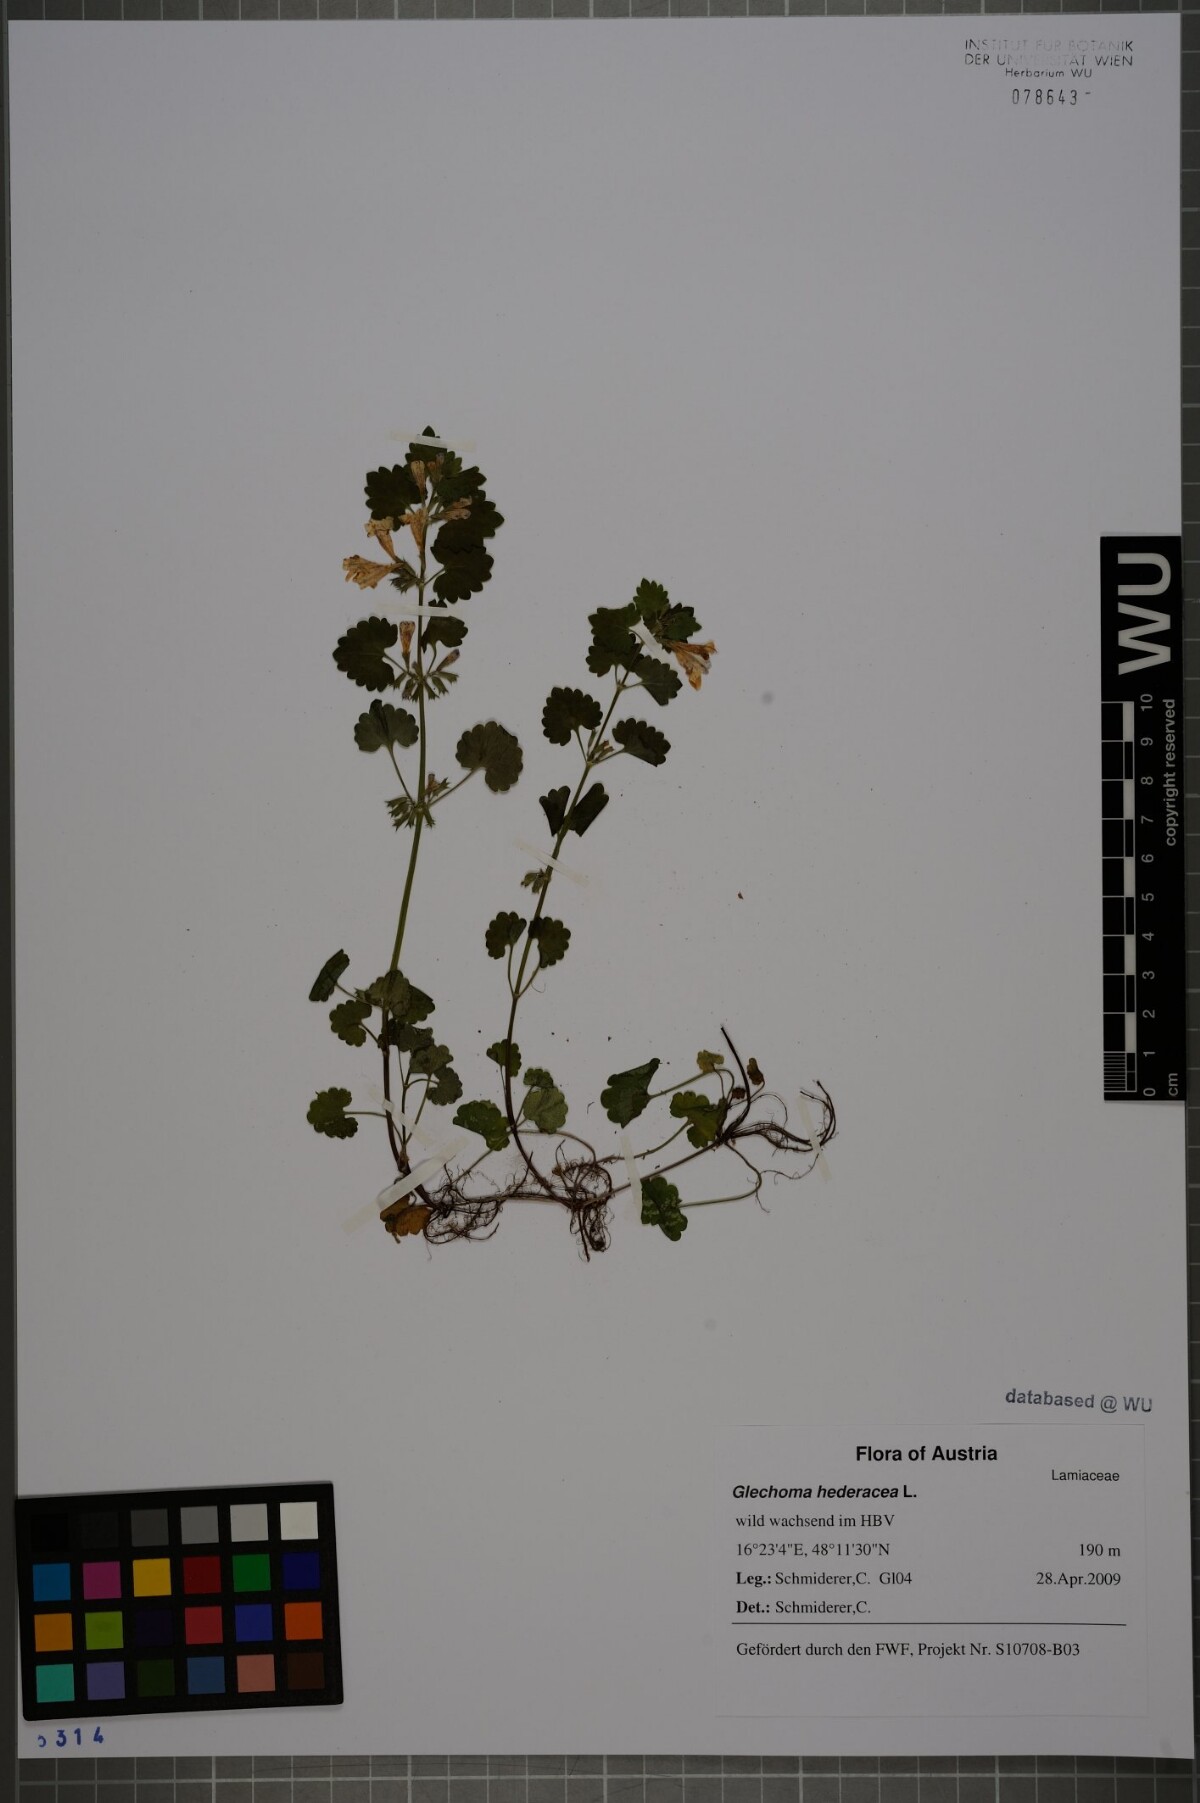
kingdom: Plantae
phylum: Tracheophyta
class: Magnoliopsida
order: Lamiales
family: Lamiaceae
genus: Glechoma
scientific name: Glechoma hederacea
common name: Ground ivy
